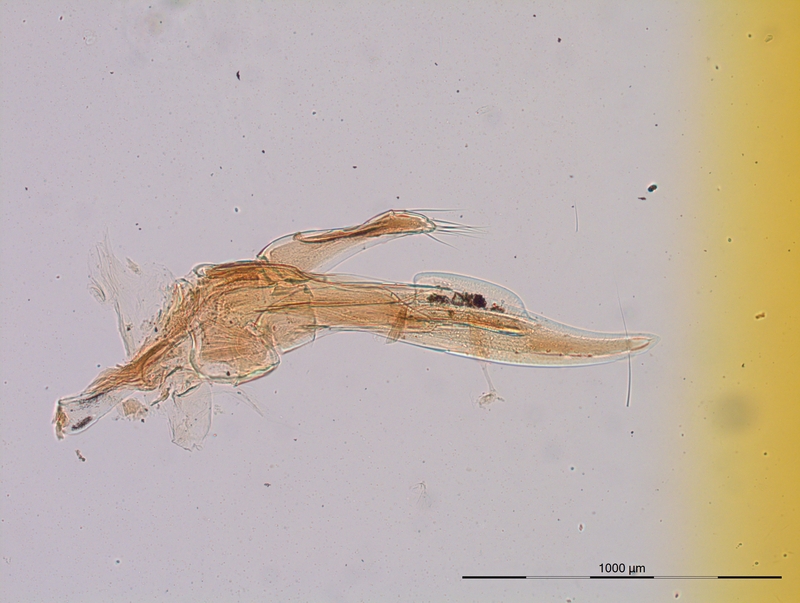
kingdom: Animalia
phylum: Arthropoda
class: Diplopoda
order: Julida
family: Blaniulidae
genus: Blaniulus
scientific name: Blaniulus dollfusi
